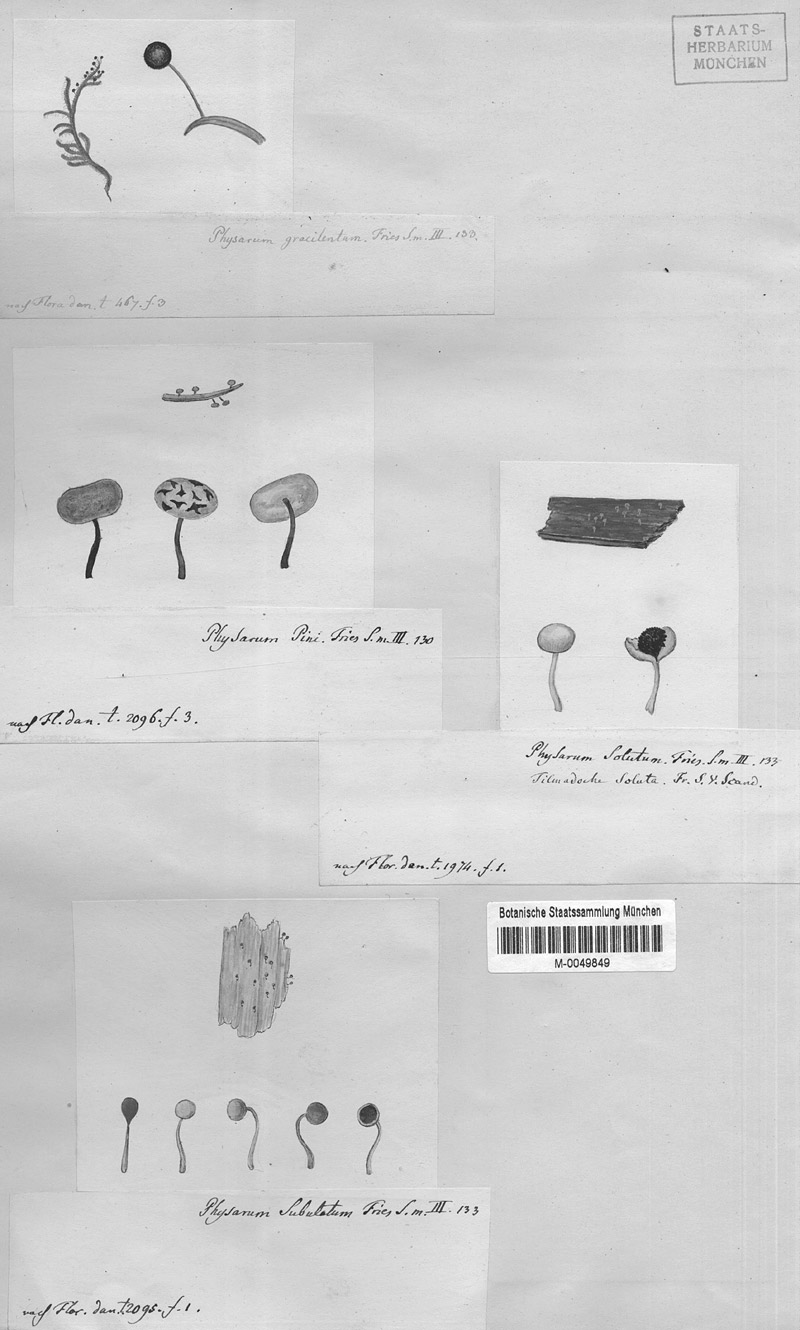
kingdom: Protozoa
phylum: Mycetozoa
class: Myxomycetes
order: Physarales
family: Physaraceae
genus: Physarum
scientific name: Physarum album
